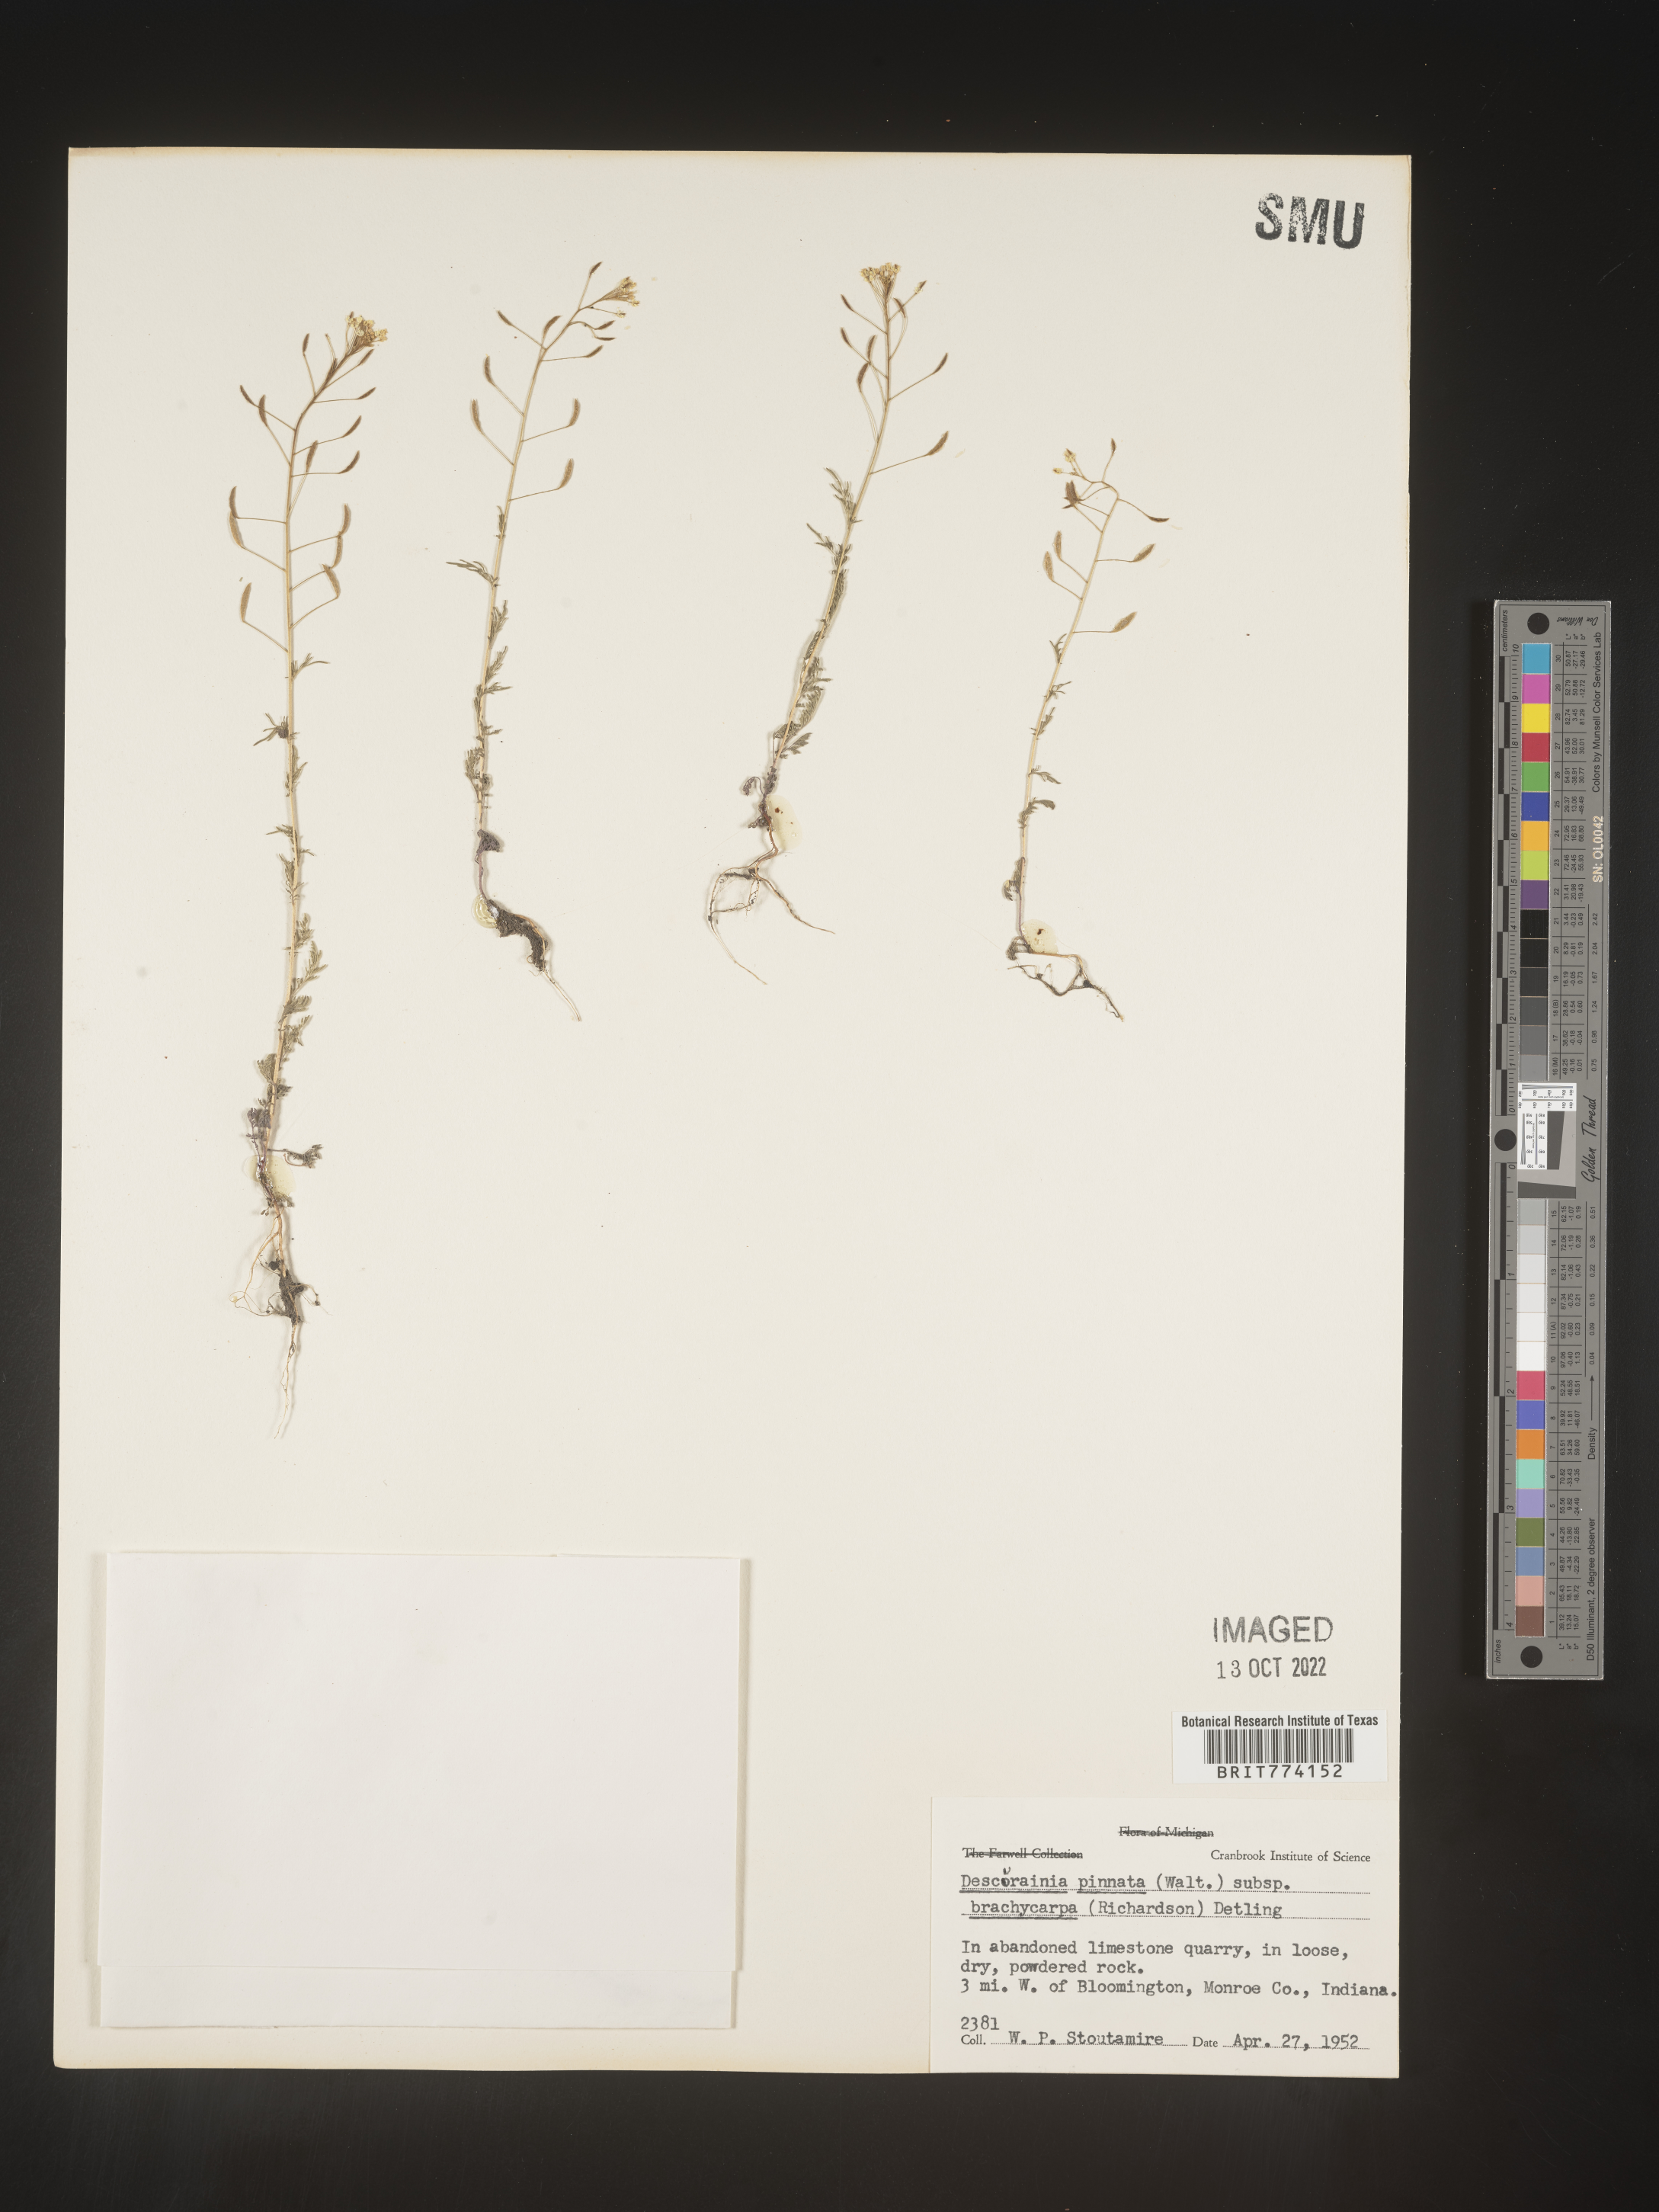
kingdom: Plantae
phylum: Tracheophyta
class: Magnoliopsida
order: Brassicales
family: Brassicaceae
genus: Descurainia
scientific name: Descurainia pinnata
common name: Western tansy mustard
